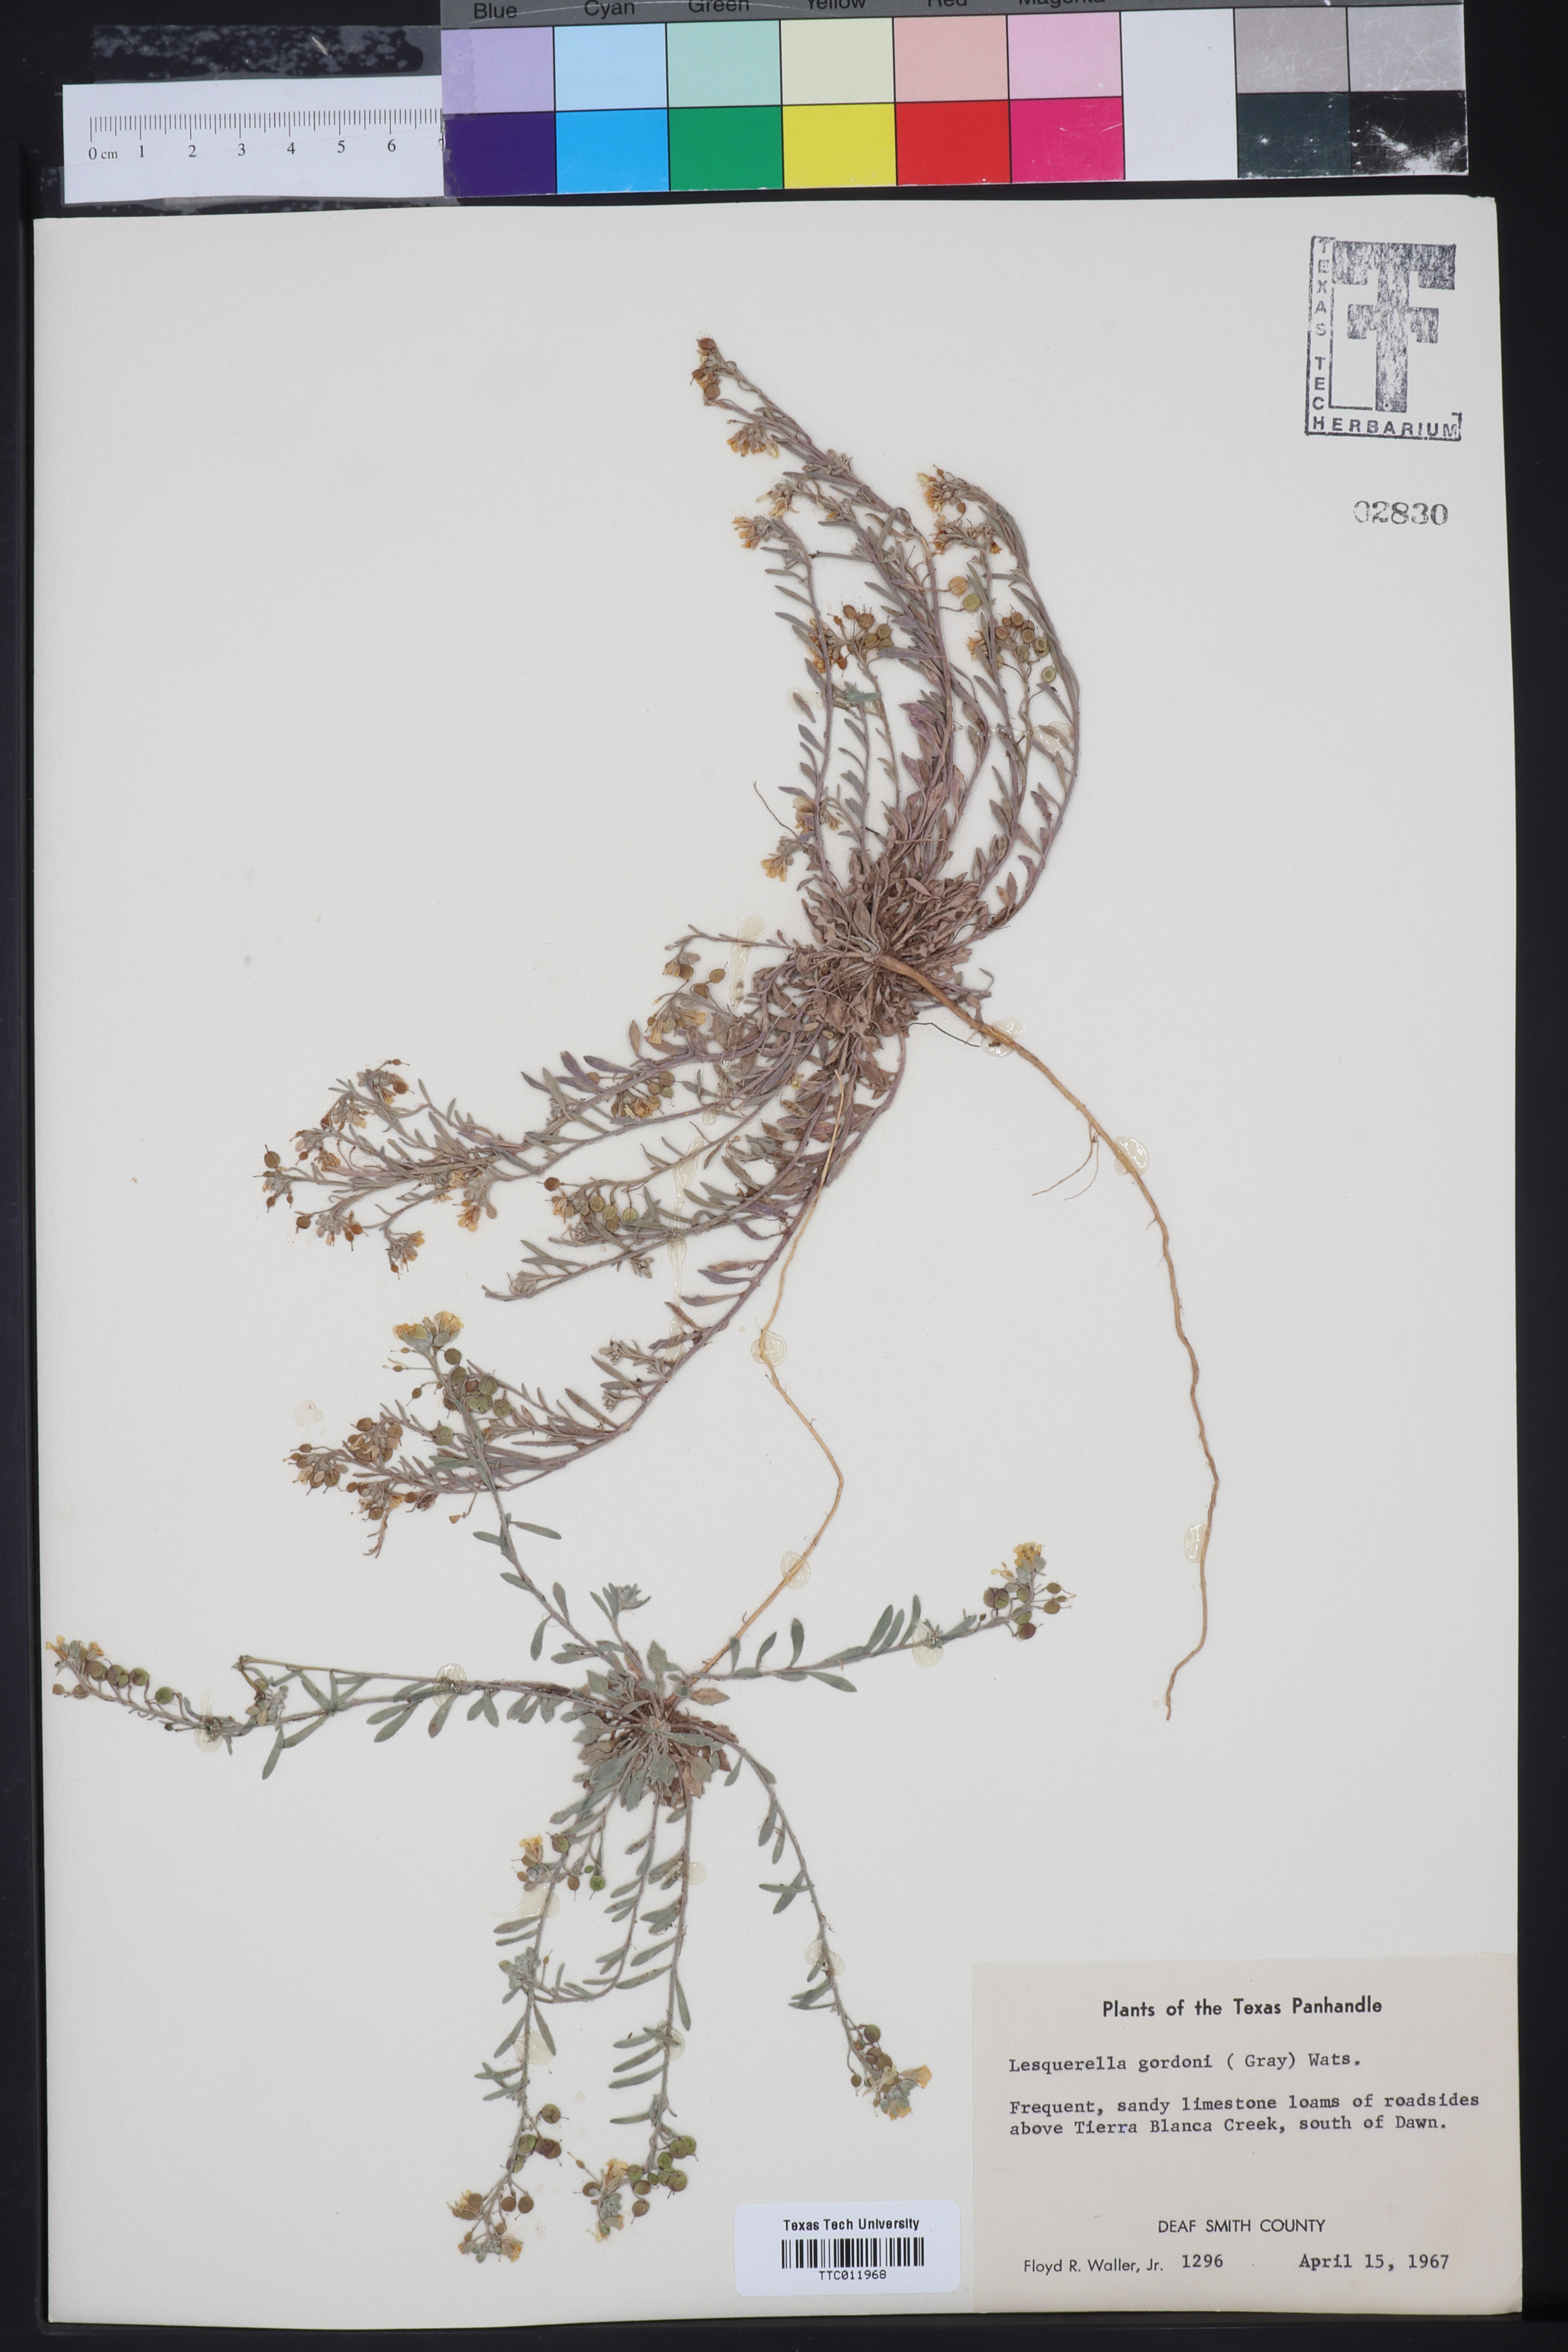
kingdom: Plantae
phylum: Tracheophyta
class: Magnoliopsida
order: Brassicales
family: Brassicaceae
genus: Physaria
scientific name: Physaria gordonii
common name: Gordon's bladderpod
